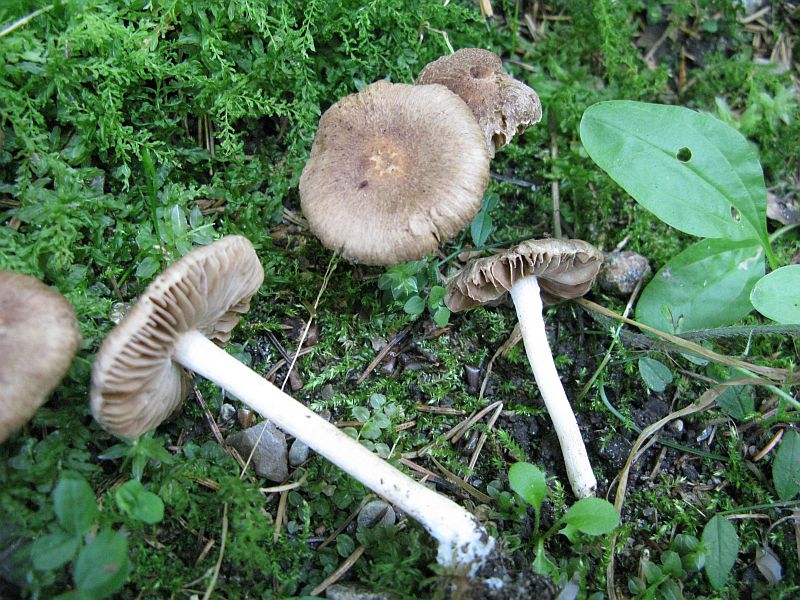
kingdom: Fungi
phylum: Basidiomycota
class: Agaricomycetes
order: Agaricales
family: Inocybaceae
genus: Inocybe
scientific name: Inocybe
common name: trævlhat
